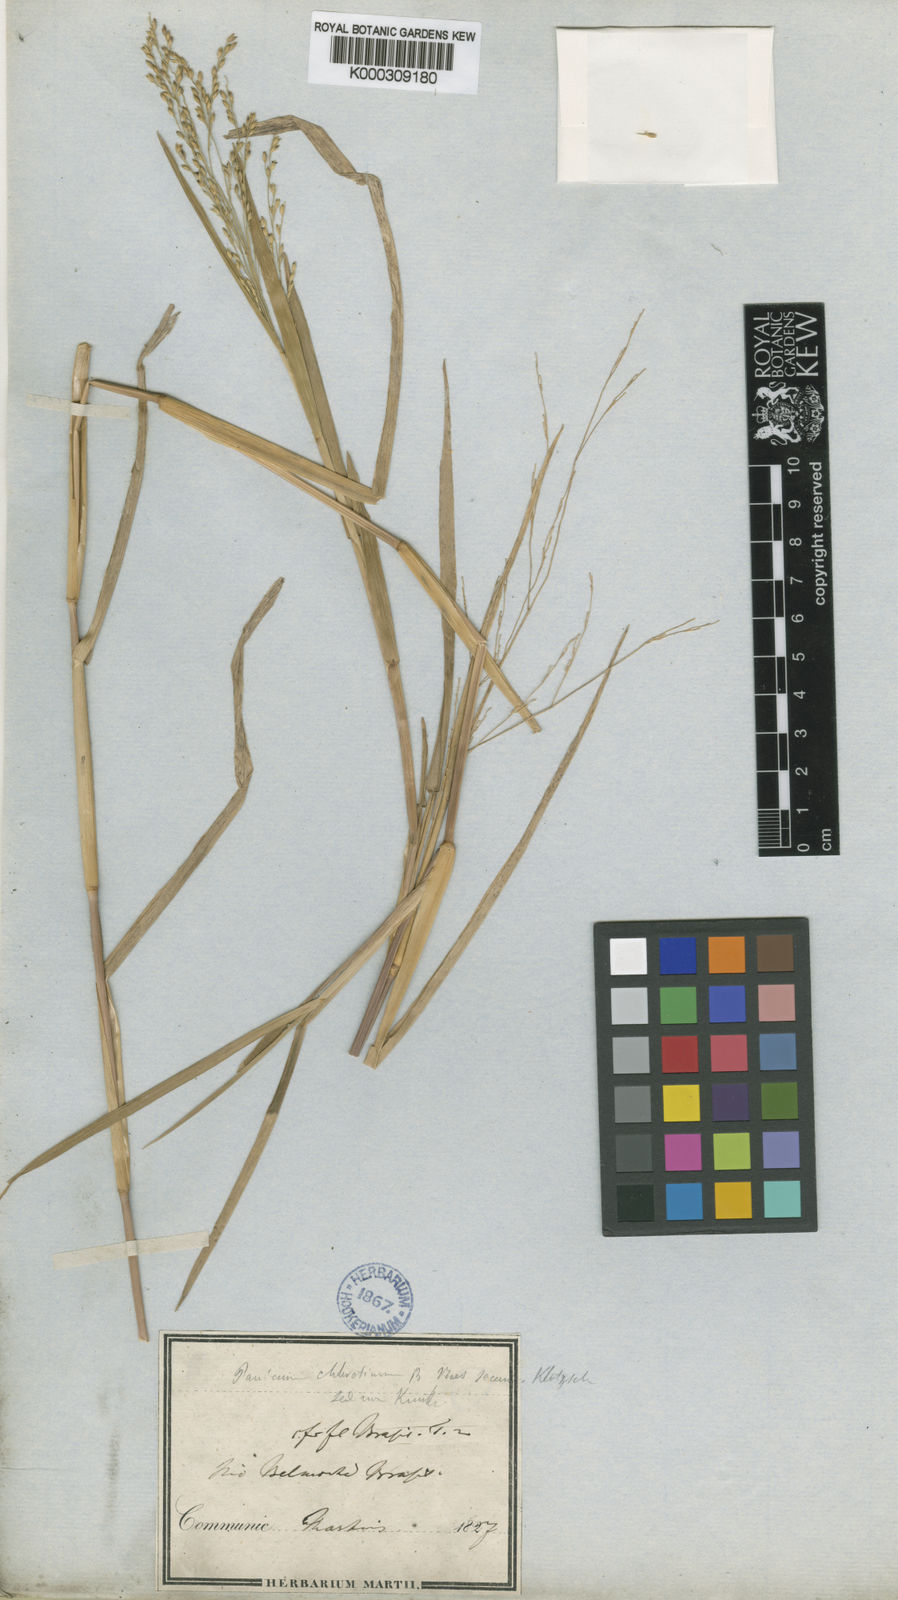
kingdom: Plantae
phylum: Tracheophyta
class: Liliopsida
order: Poales
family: Poaceae
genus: Panicum
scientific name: Panicum
